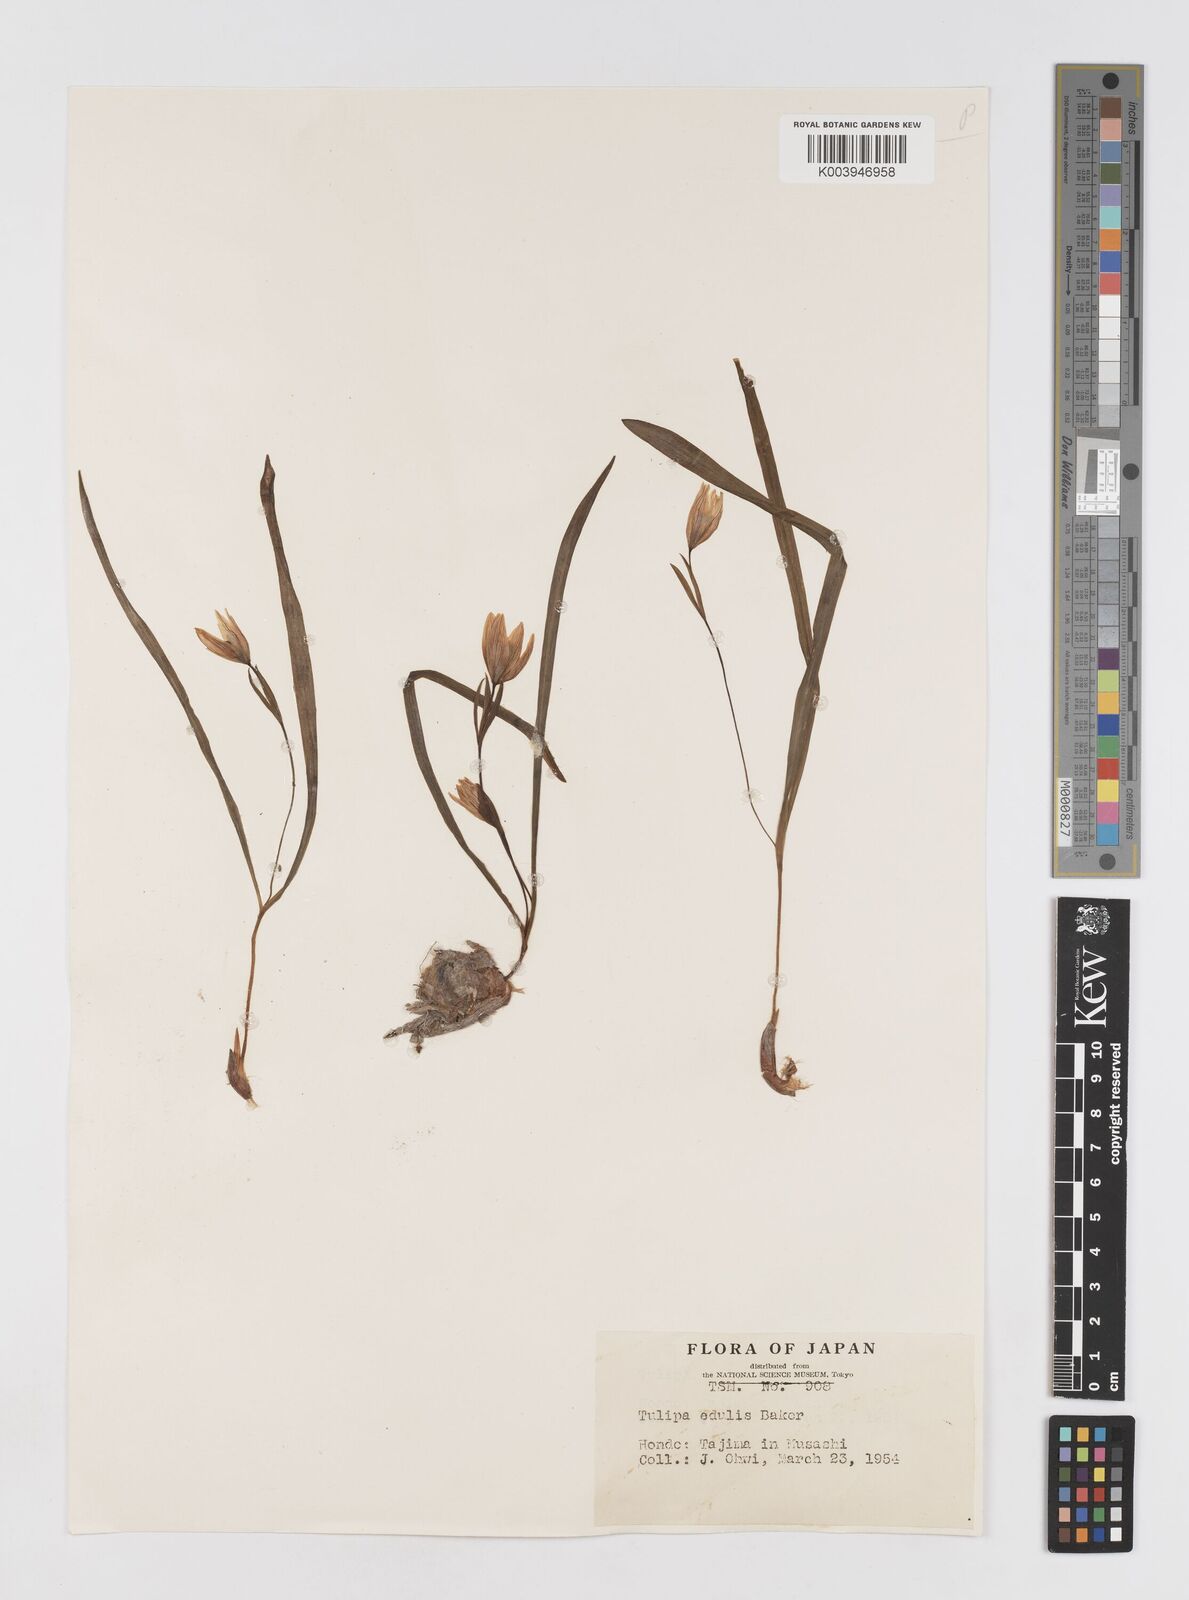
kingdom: Plantae
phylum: Tracheophyta
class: Liliopsida
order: Liliales
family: Liliaceae
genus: Amana
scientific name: Amana edulis
